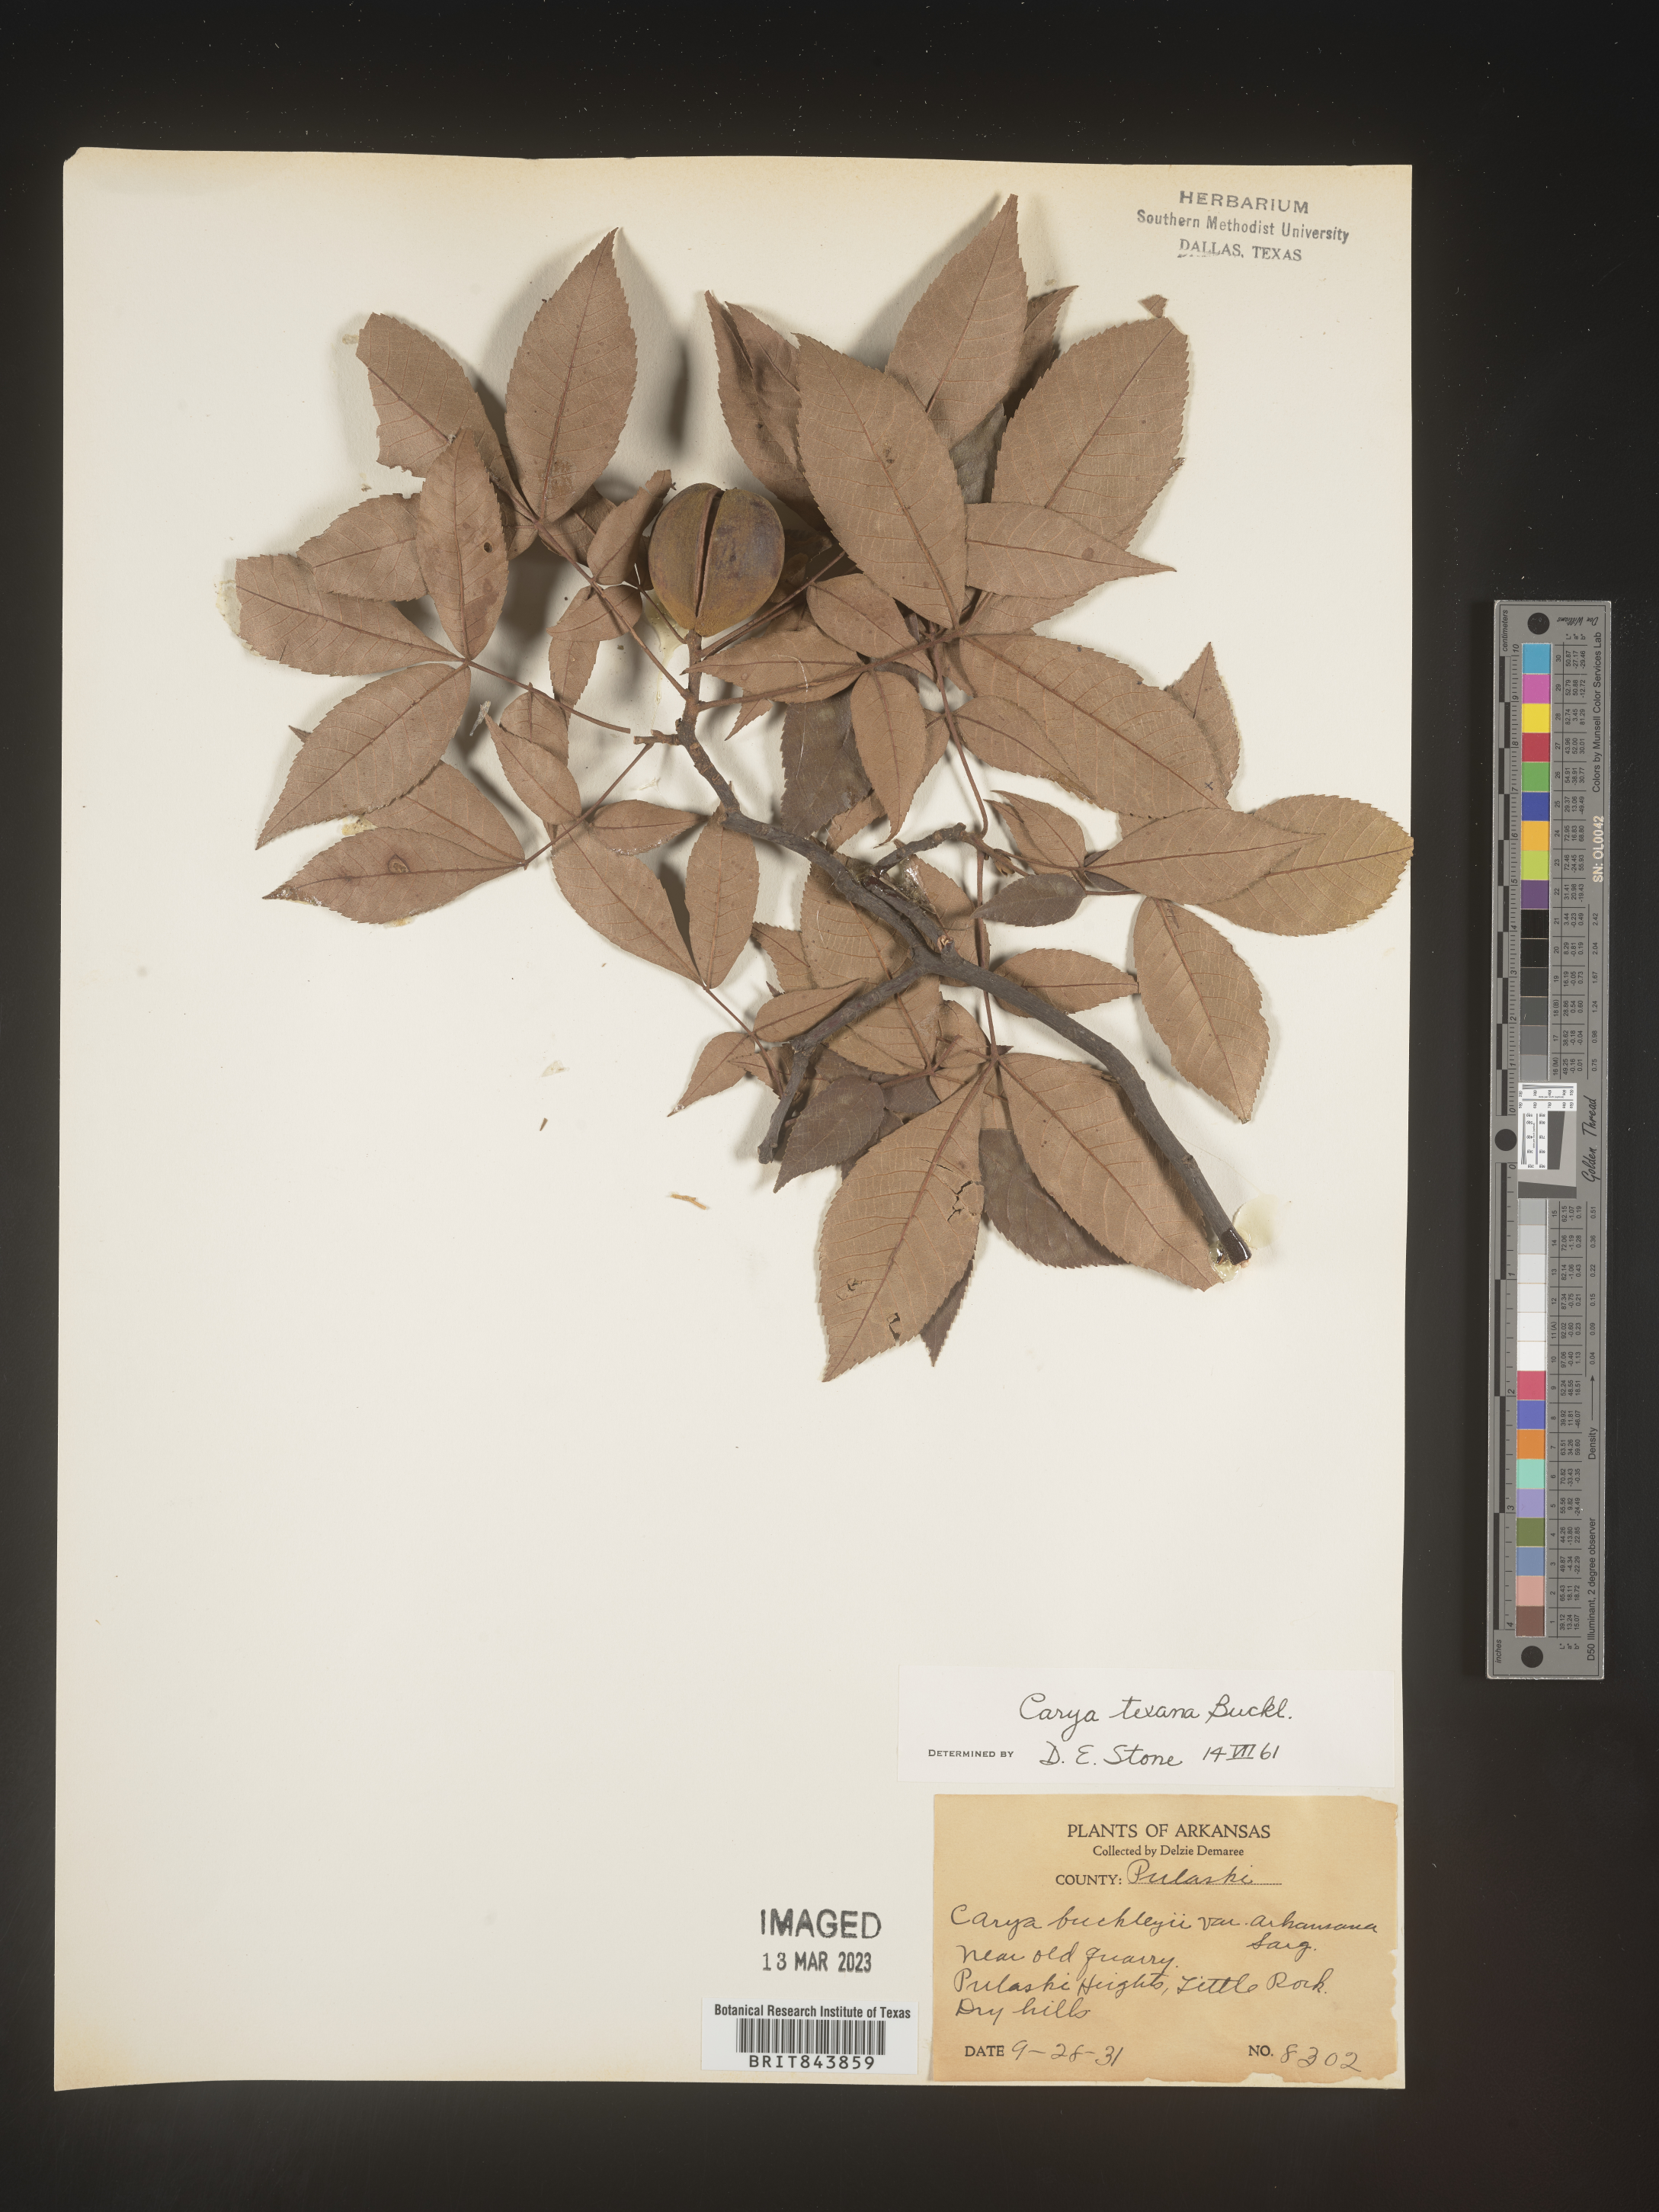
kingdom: Plantae
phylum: Tracheophyta
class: Magnoliopsida
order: Fagales
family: Juglandaceae
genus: Carya
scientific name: Carya texana
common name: Black hickory
